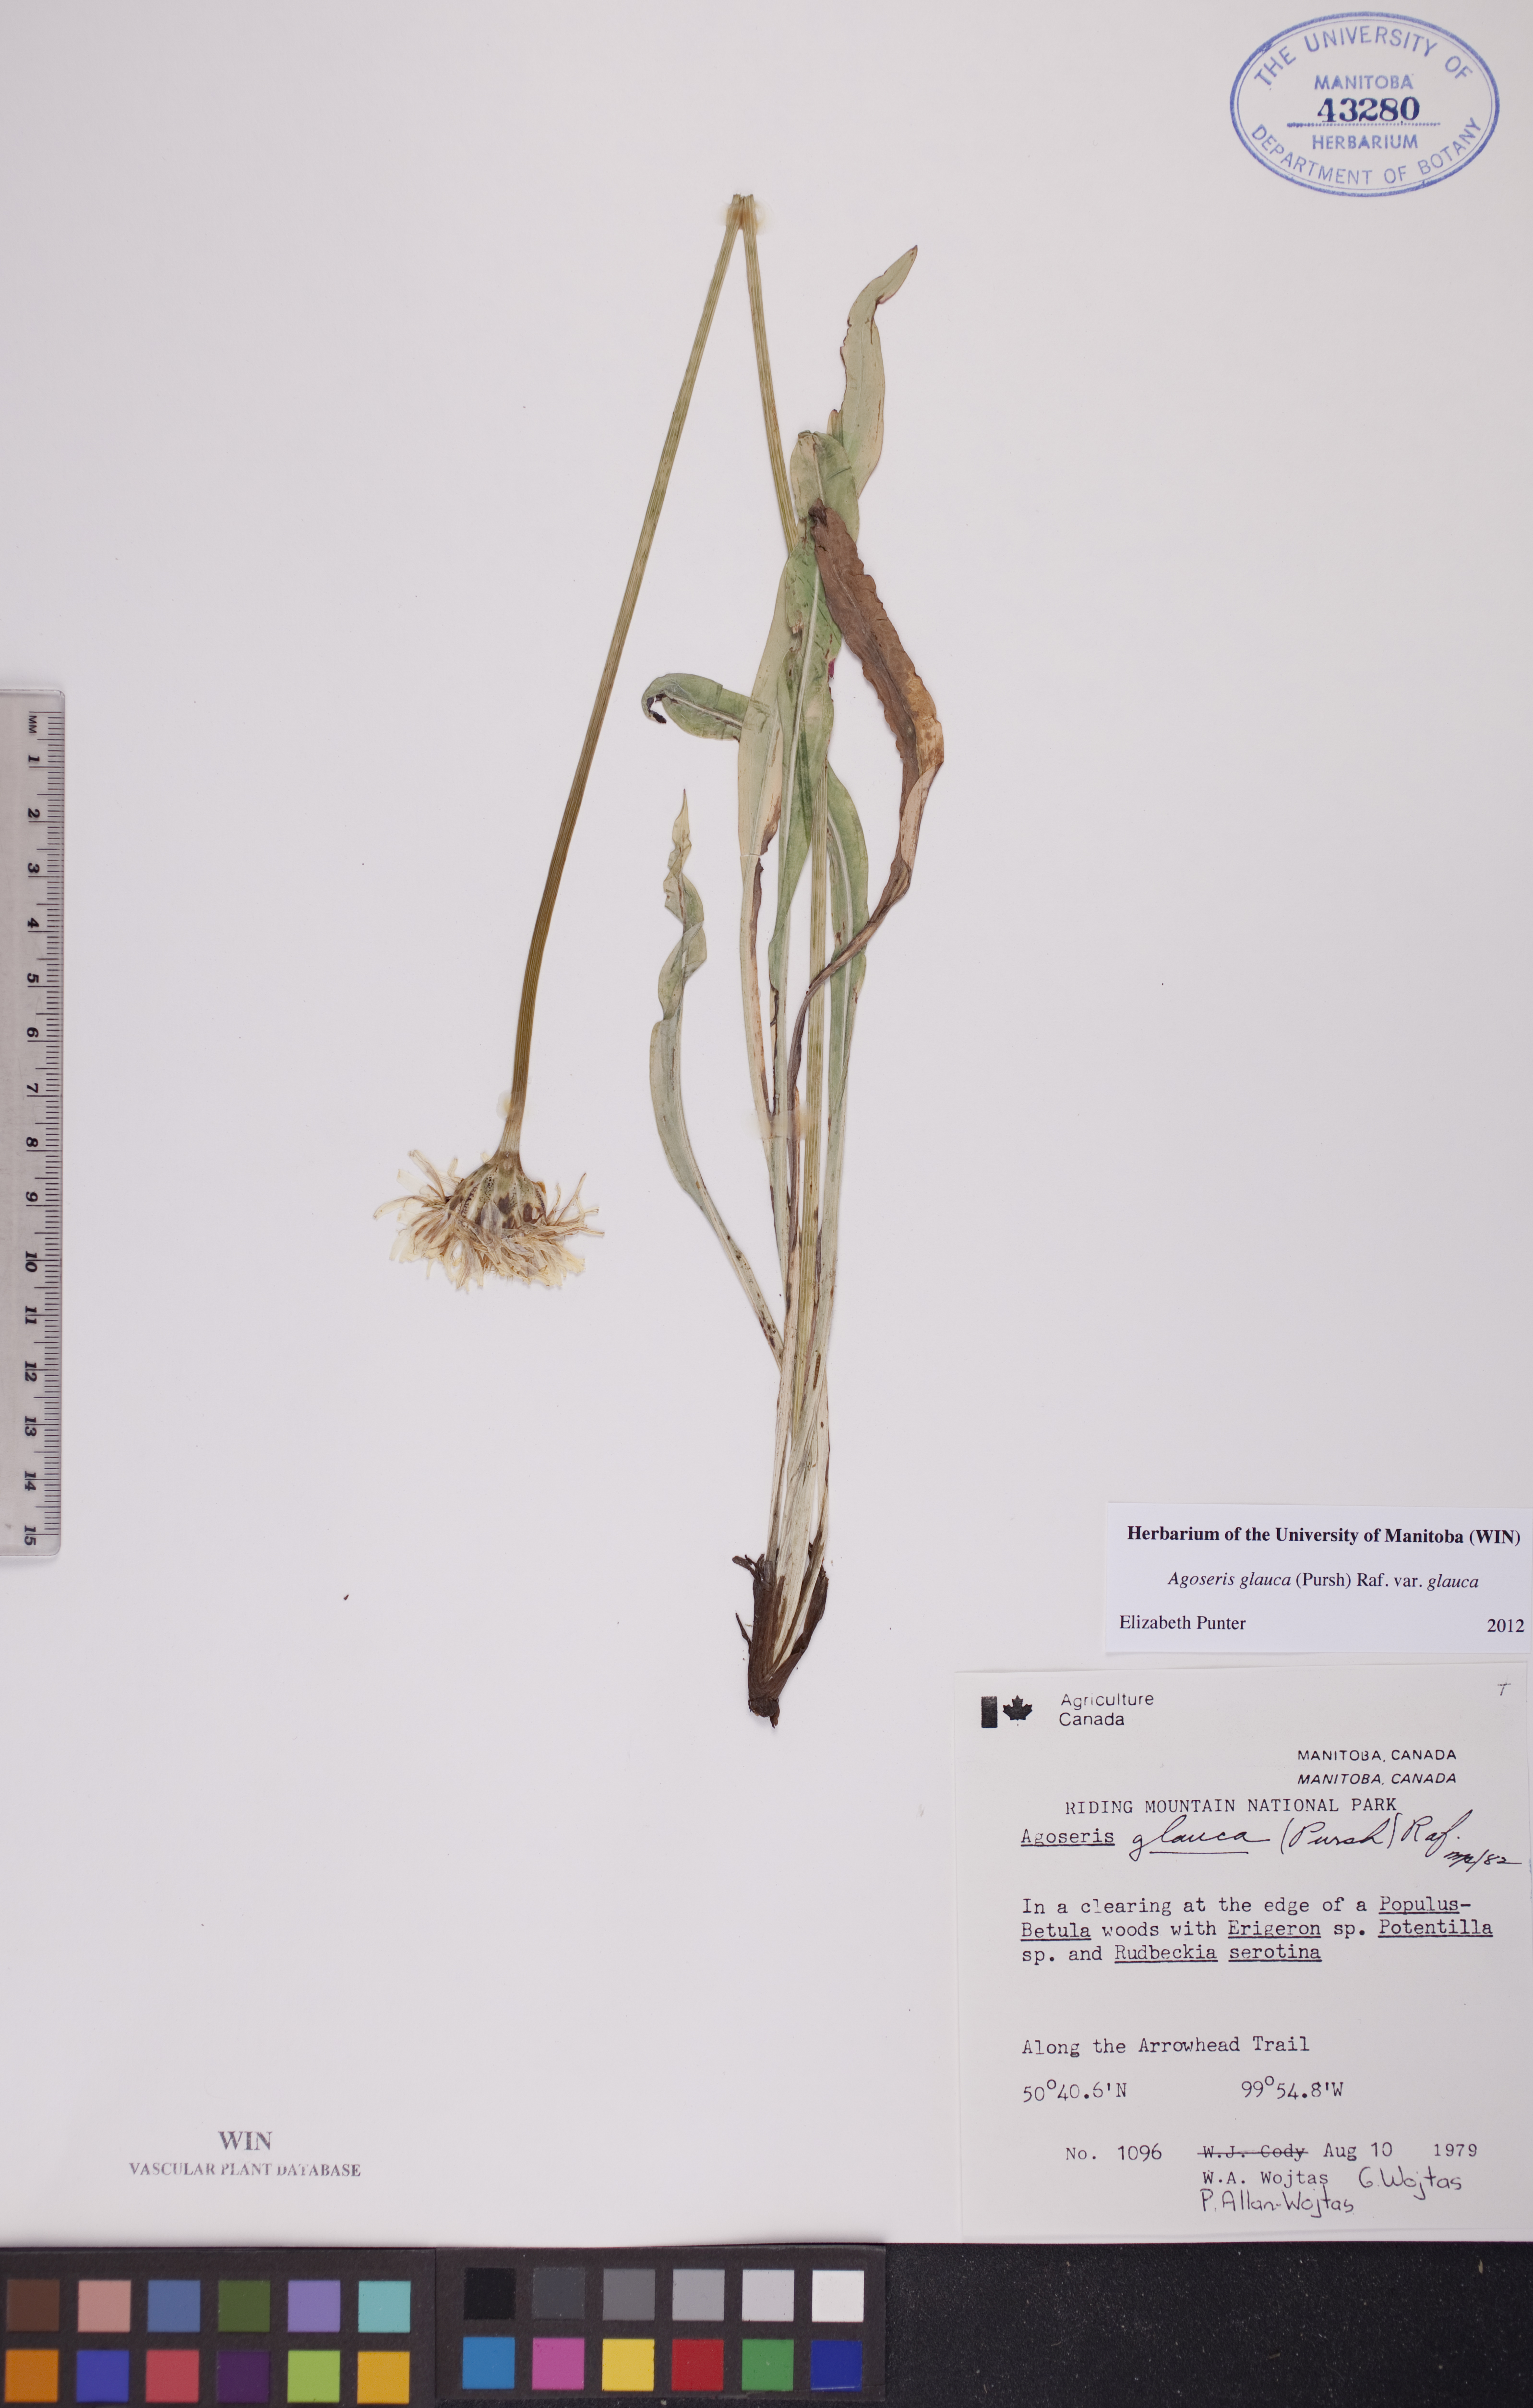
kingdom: Plantae
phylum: Tracheophyta
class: Magnoliopsida
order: Asterales
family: Asteraceae
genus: Agoseris
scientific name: Agoseris glauca
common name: Prairie agoseris
